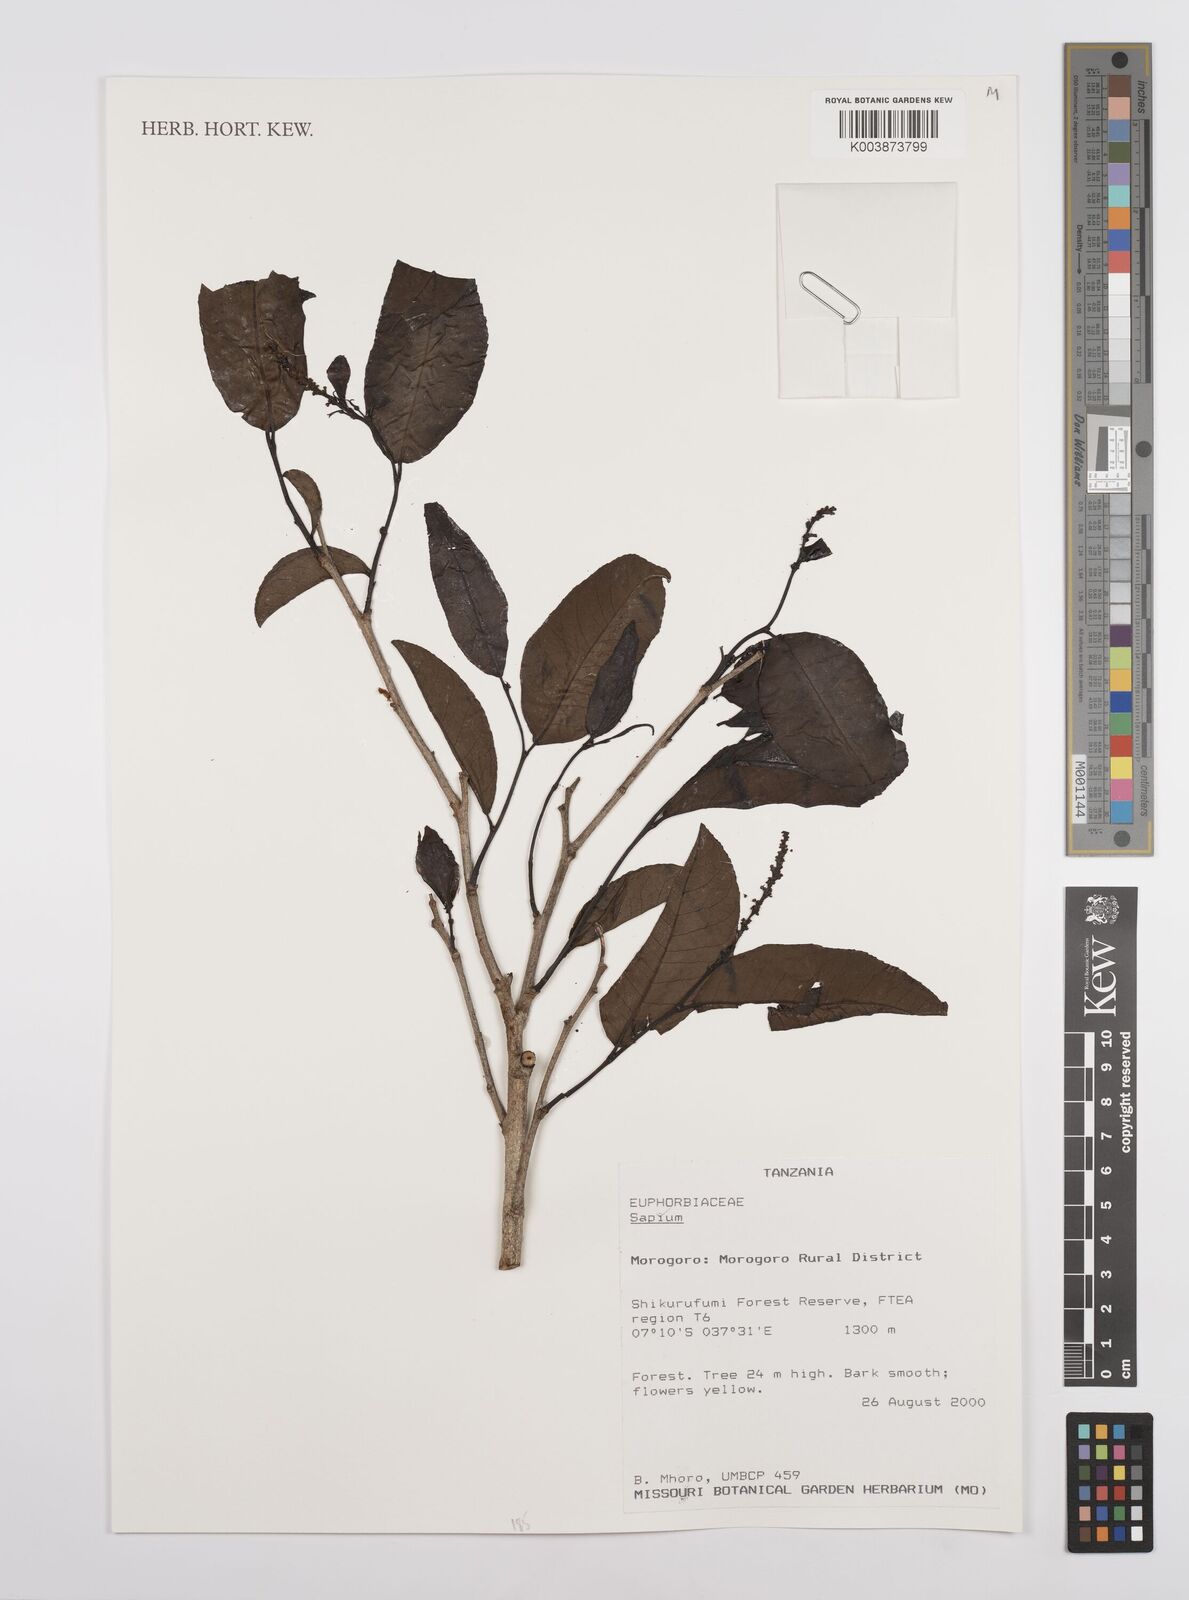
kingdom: Plantae
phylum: Tracheophyta
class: Magnoliopsida
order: Malpighiales
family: Euphorbiaceae
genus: Sapium
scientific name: Sapium
